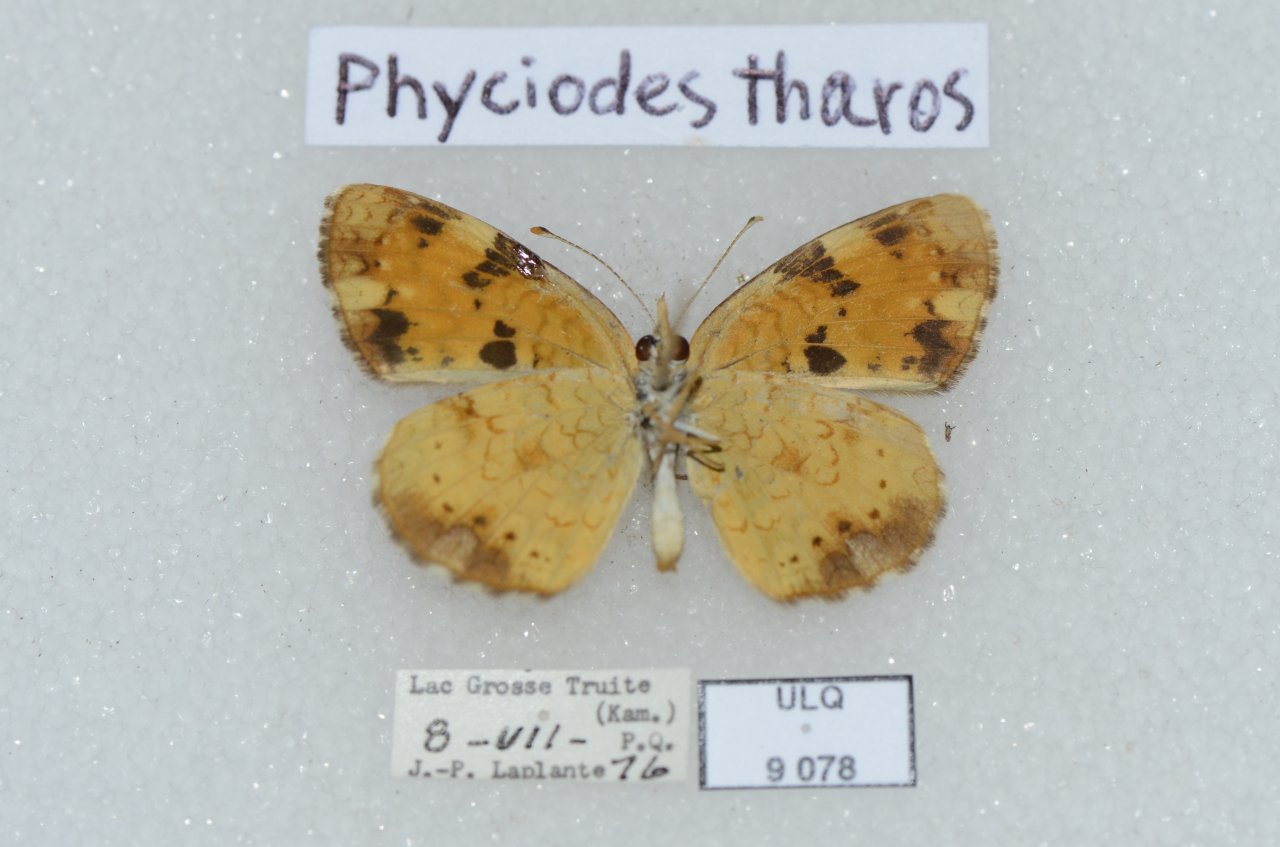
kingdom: Animalia
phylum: Arthropoda
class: Insecta
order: Lepidoptera
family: Nymphalidae
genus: Phyciodes
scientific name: Phyciodes tharos
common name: Northern Crescent
